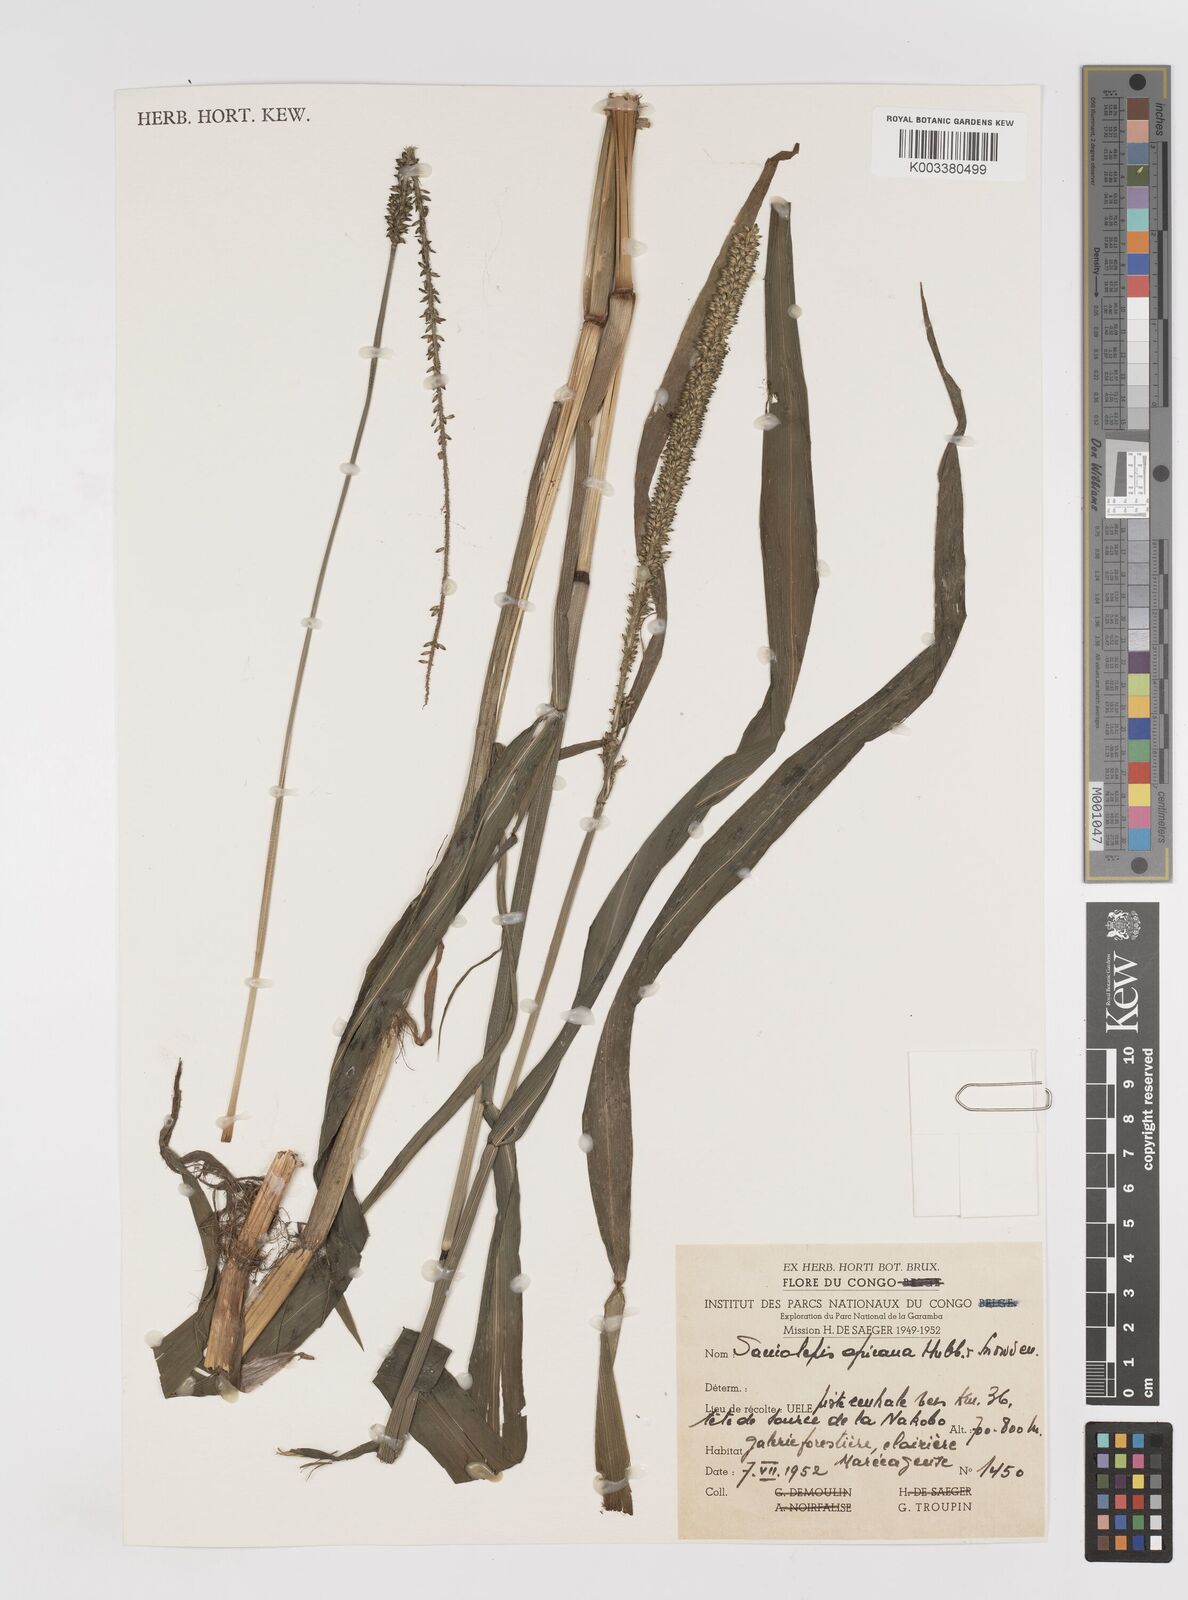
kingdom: Plantae
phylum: Tracheophyta
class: Liliopsida
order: Poales
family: Poaceae
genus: Sacciolepis
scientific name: Sacciolepis africana
